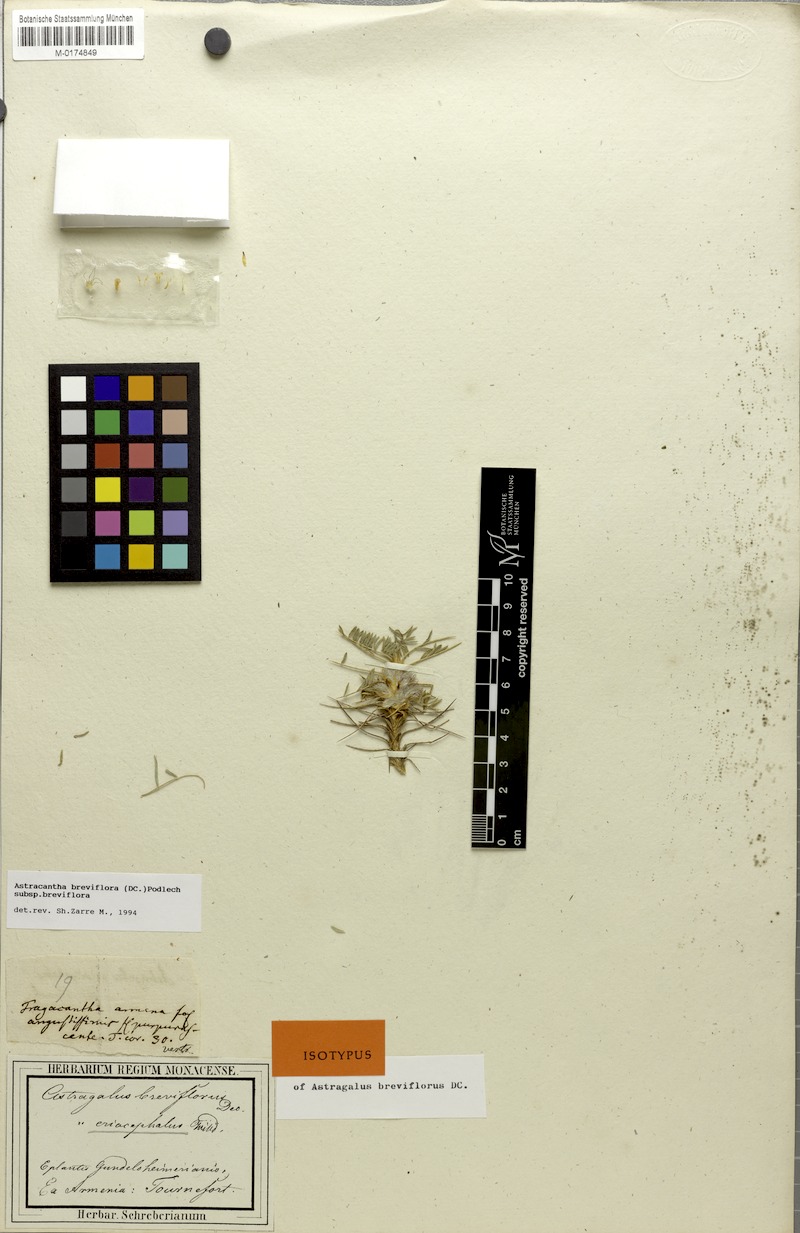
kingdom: Plantae
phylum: Tracheophyta
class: Magnoliopsida
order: Fabales
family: Fabaceae
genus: Astragalus
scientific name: Astragalus breviflorus
